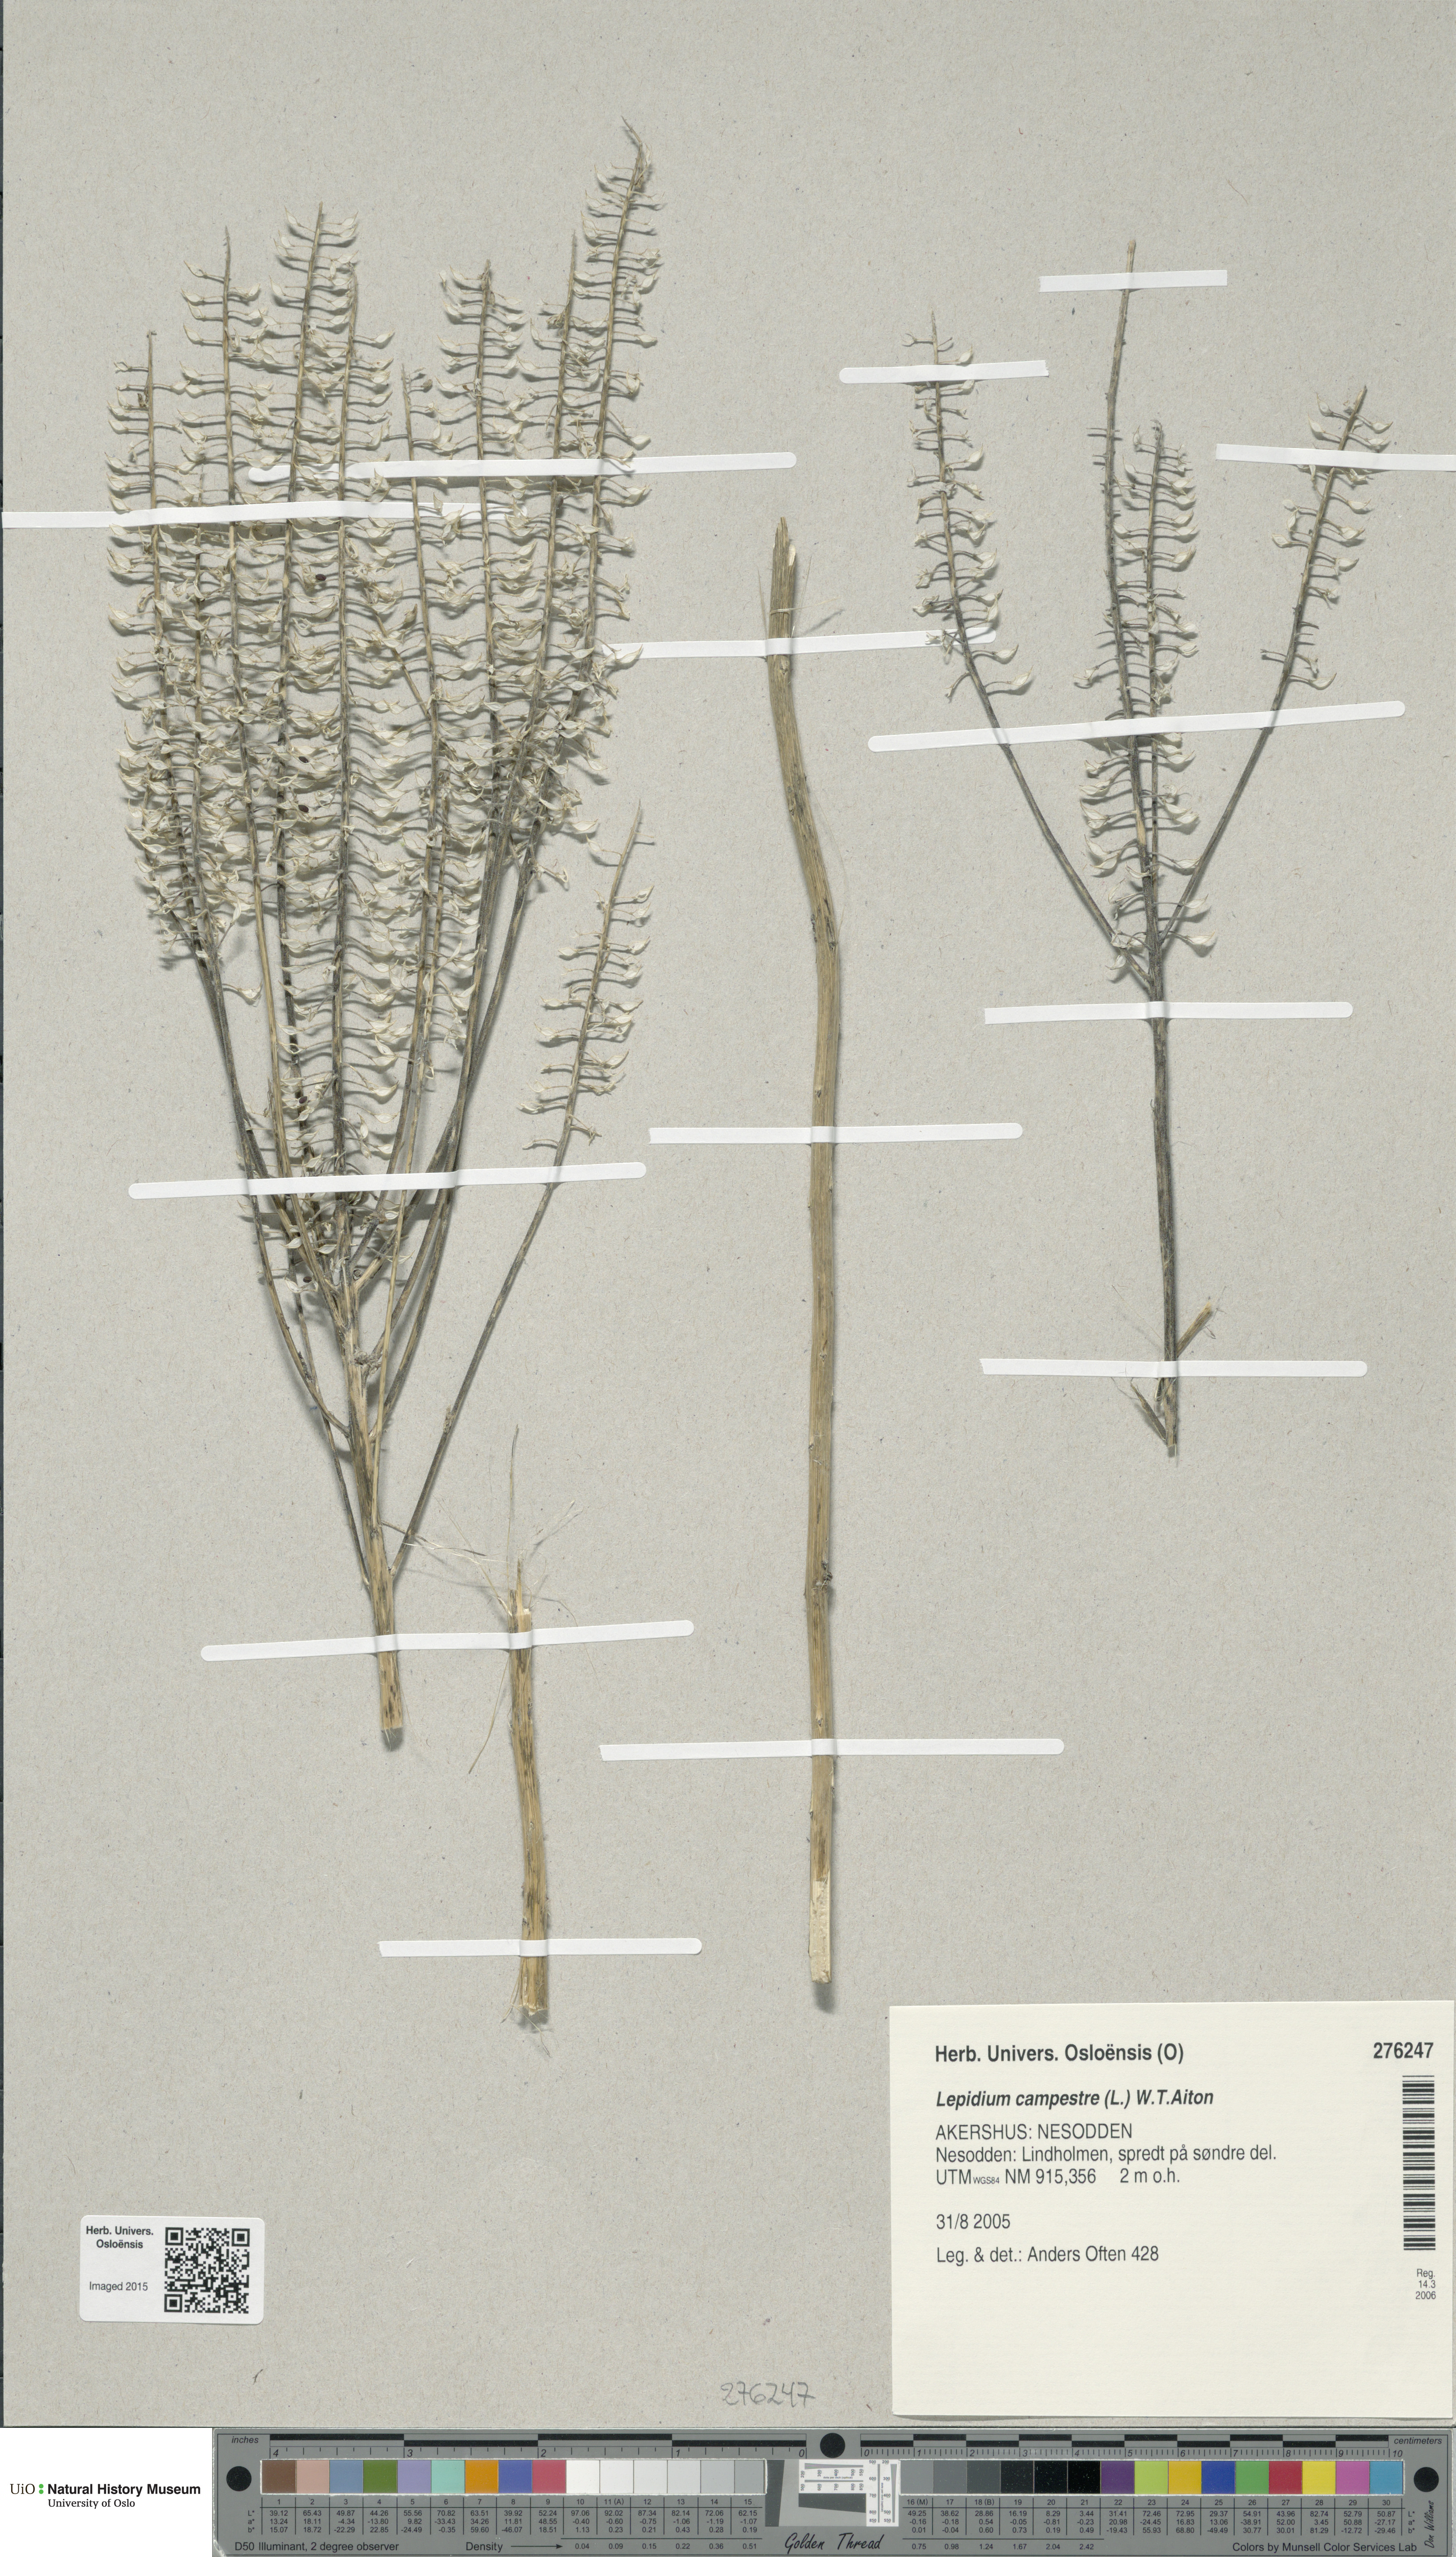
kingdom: Plantae
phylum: Tracheophyta
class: Magnoliopsida
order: Brassicales
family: Brassicaceae
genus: Lepidium
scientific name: Lepidium campestre
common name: Field pepperwort
